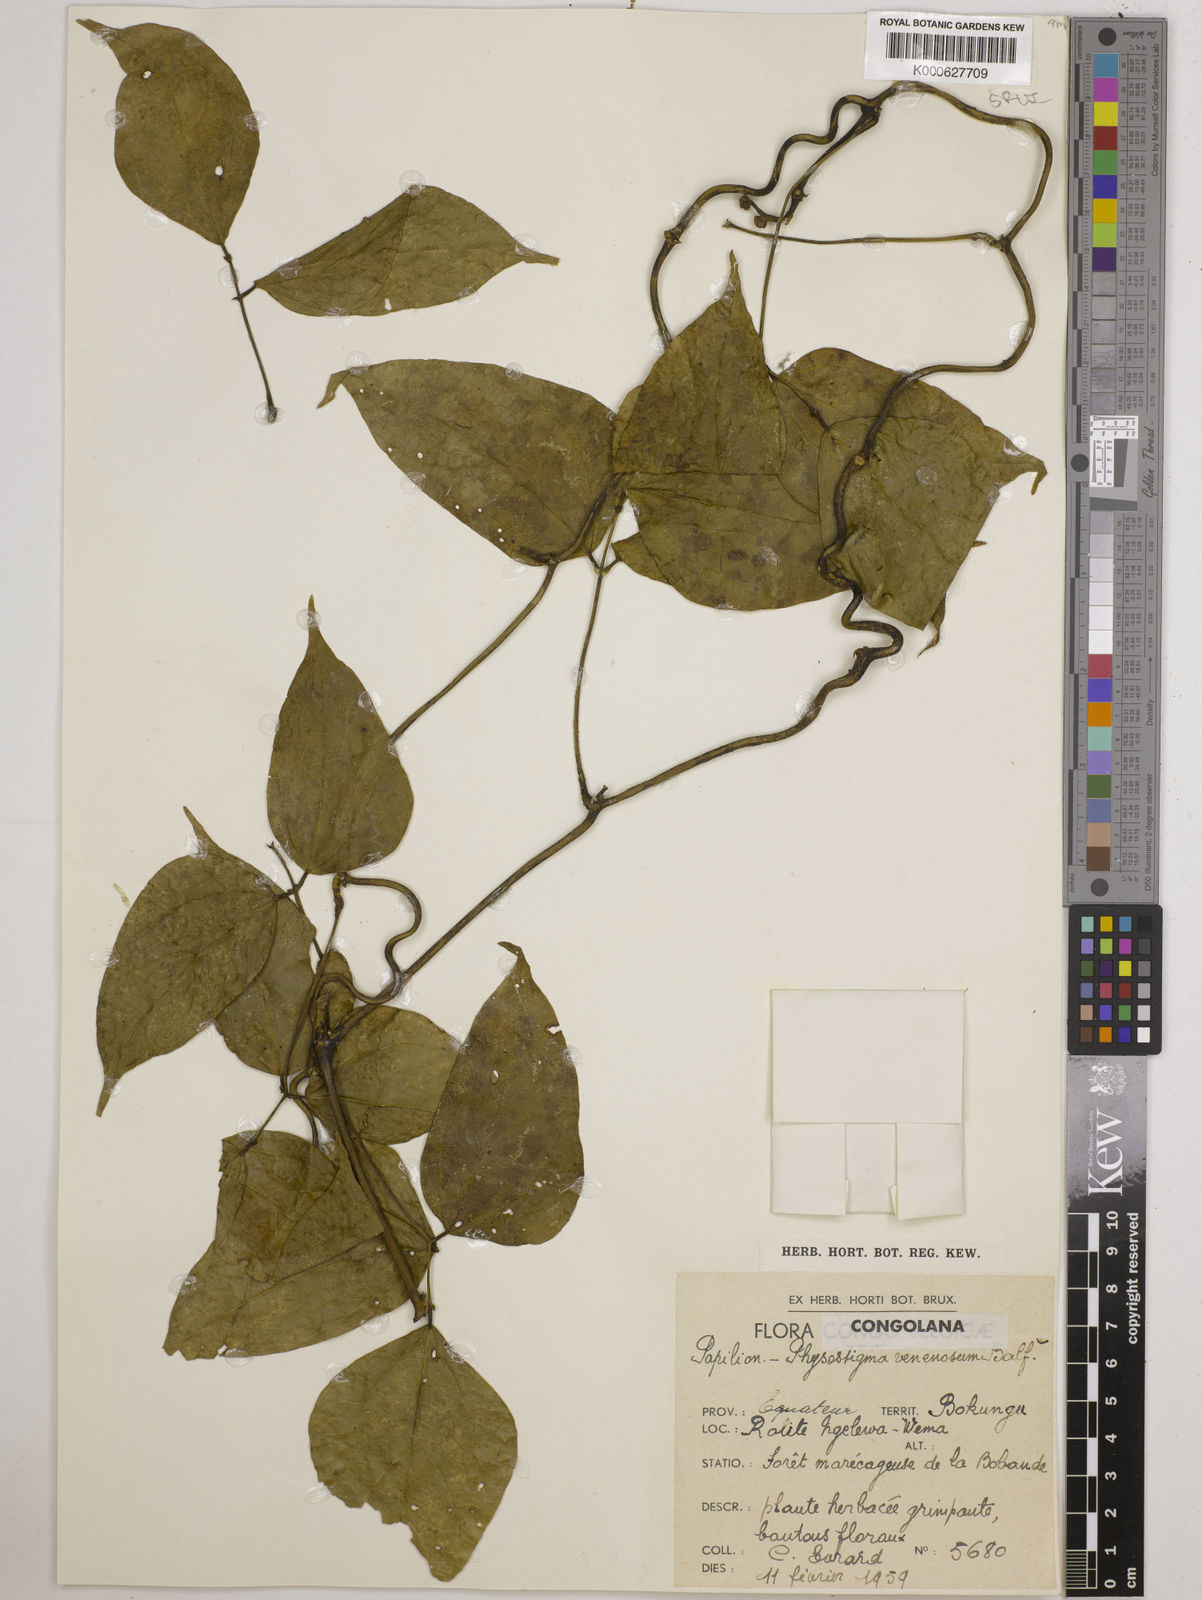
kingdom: Plantae
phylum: Tracheophyta
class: Magnoliopsida
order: Fabales
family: Fabaceae
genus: Physostigma
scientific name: Physostigma cylindrospermum
